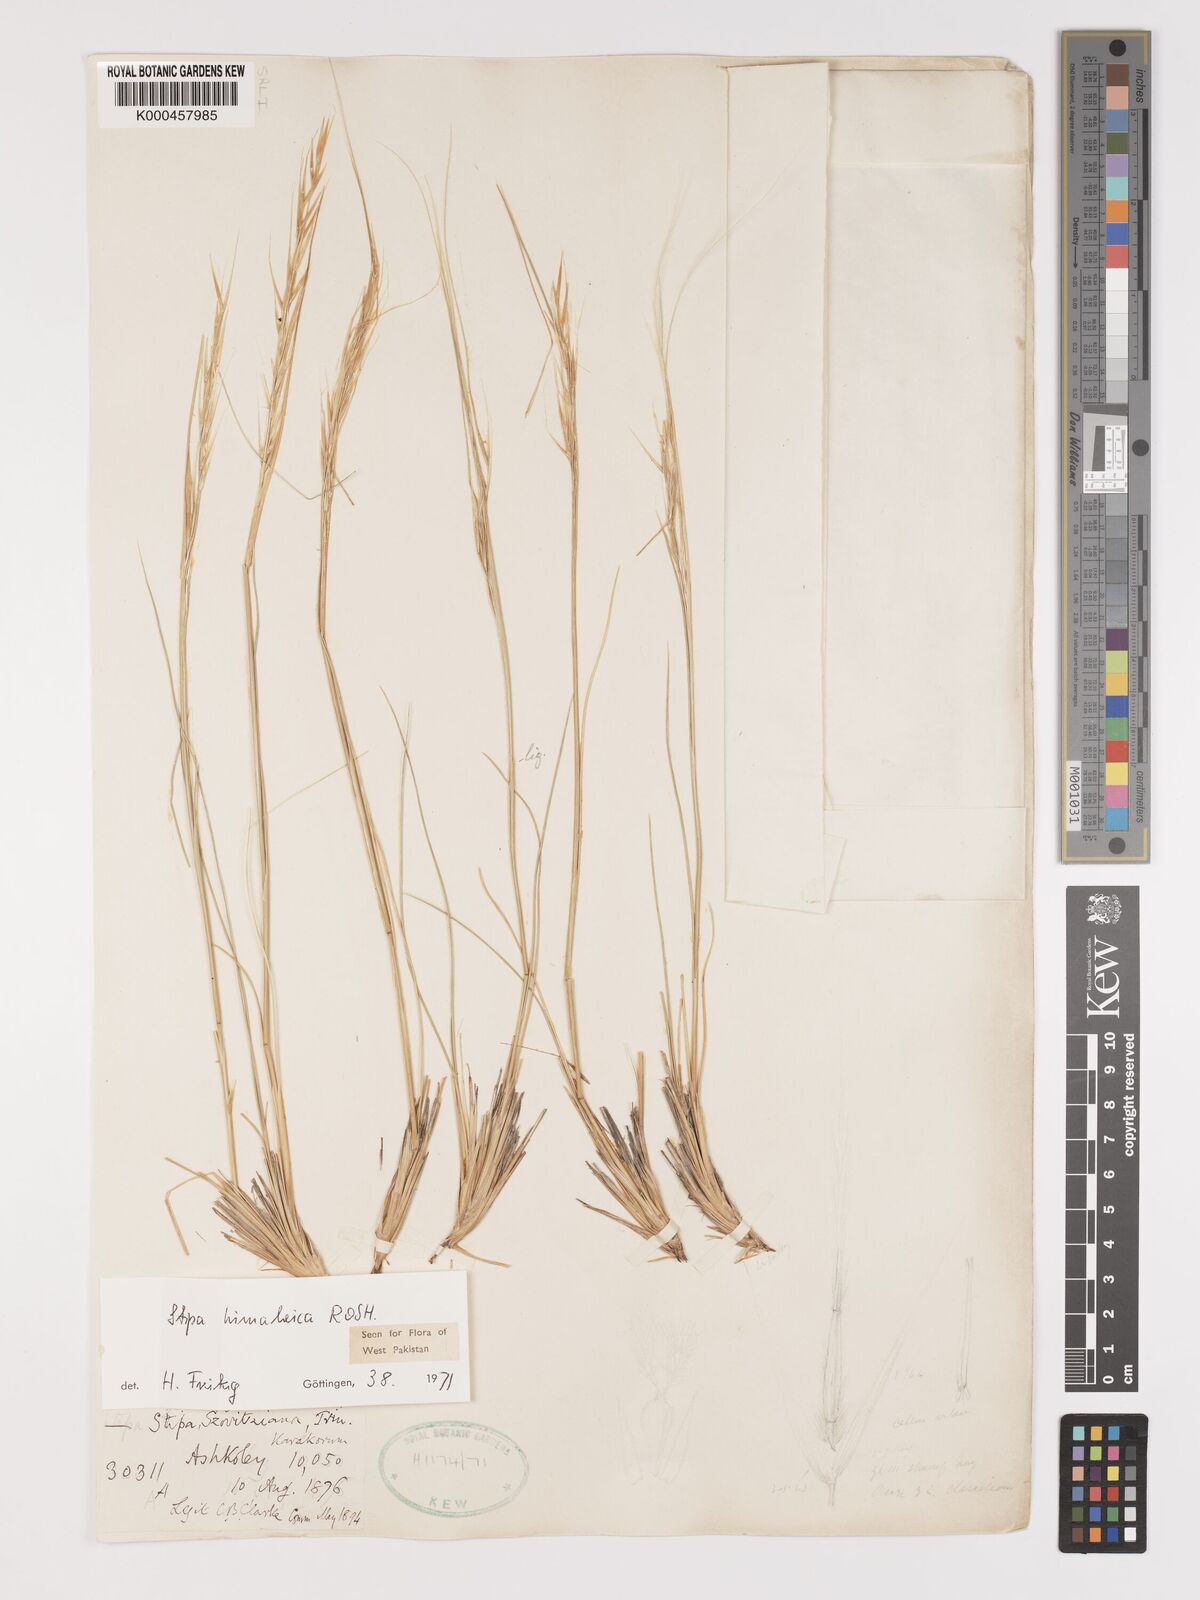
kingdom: Plantae
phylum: Tracheophyta
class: Liliopsida
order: Poales
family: Poaceae
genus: Stipa
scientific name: Stipa himalaica
